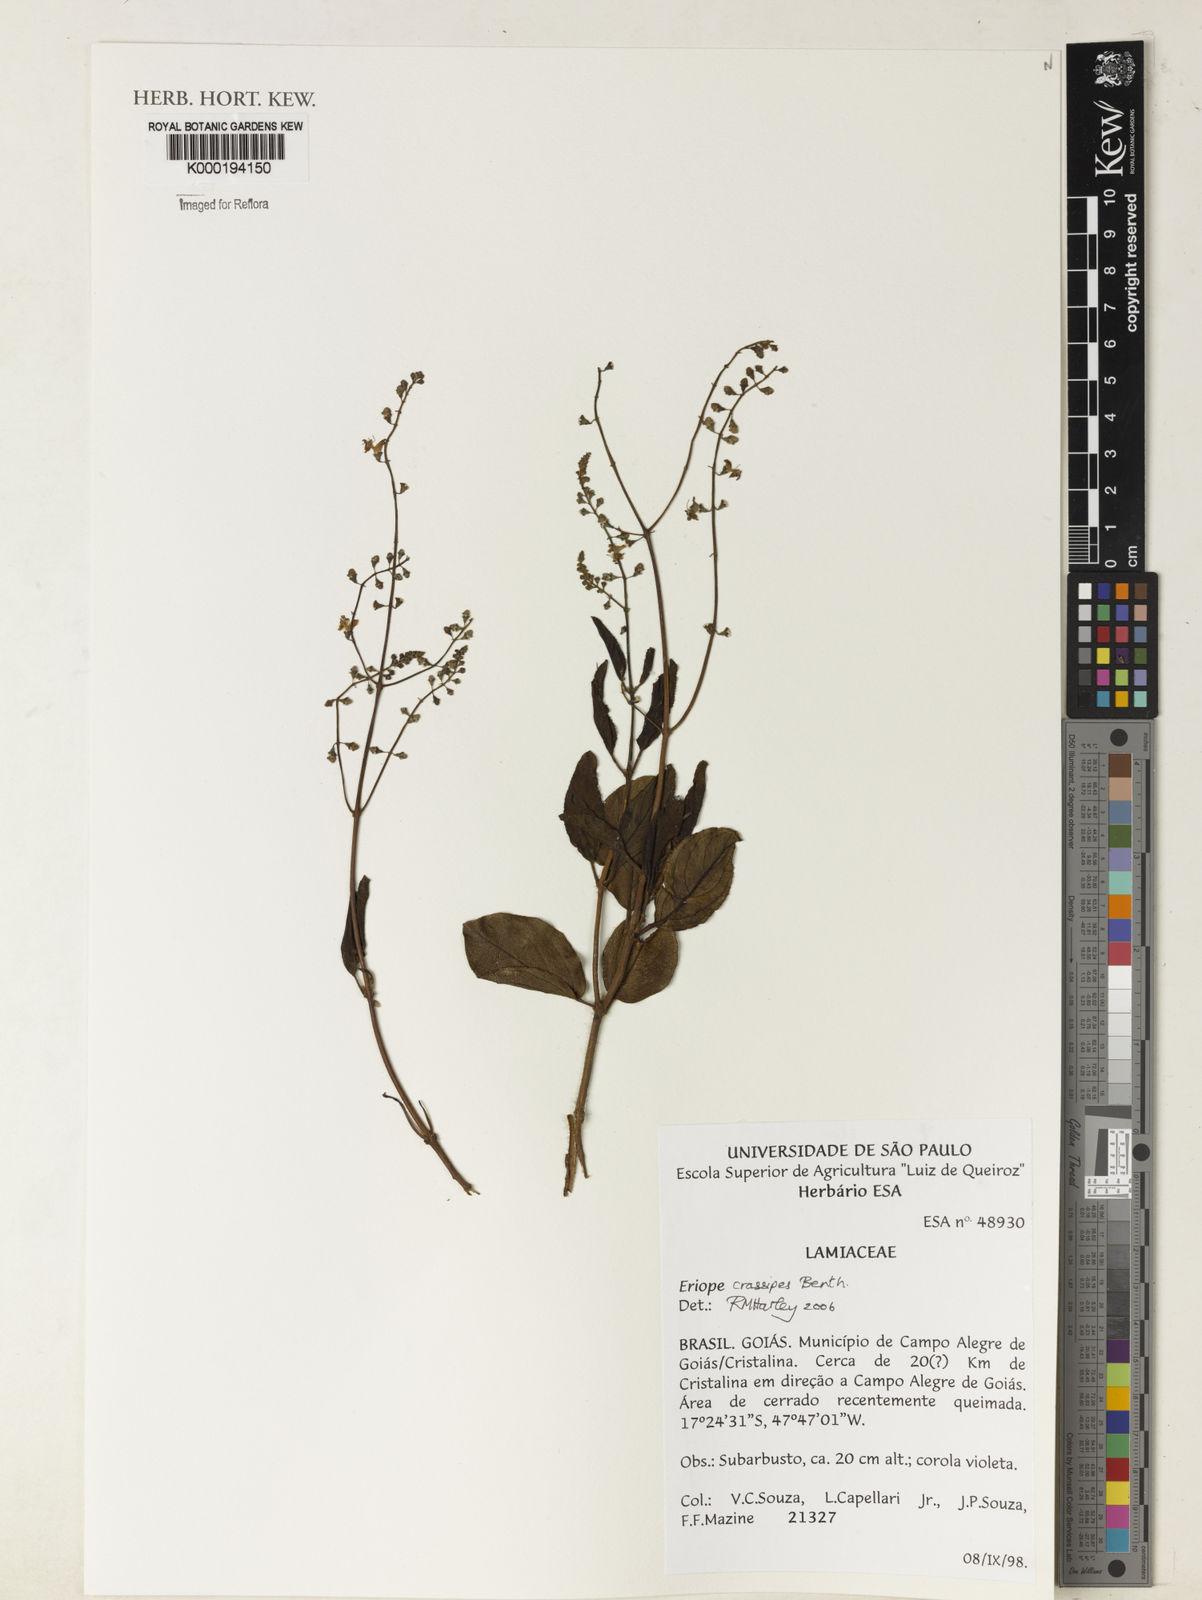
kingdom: Plantae
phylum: Tracheophyta
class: Magnoliopsida
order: Lamiales
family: Lamiaceae
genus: Eriope
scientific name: Eriope crassipes
